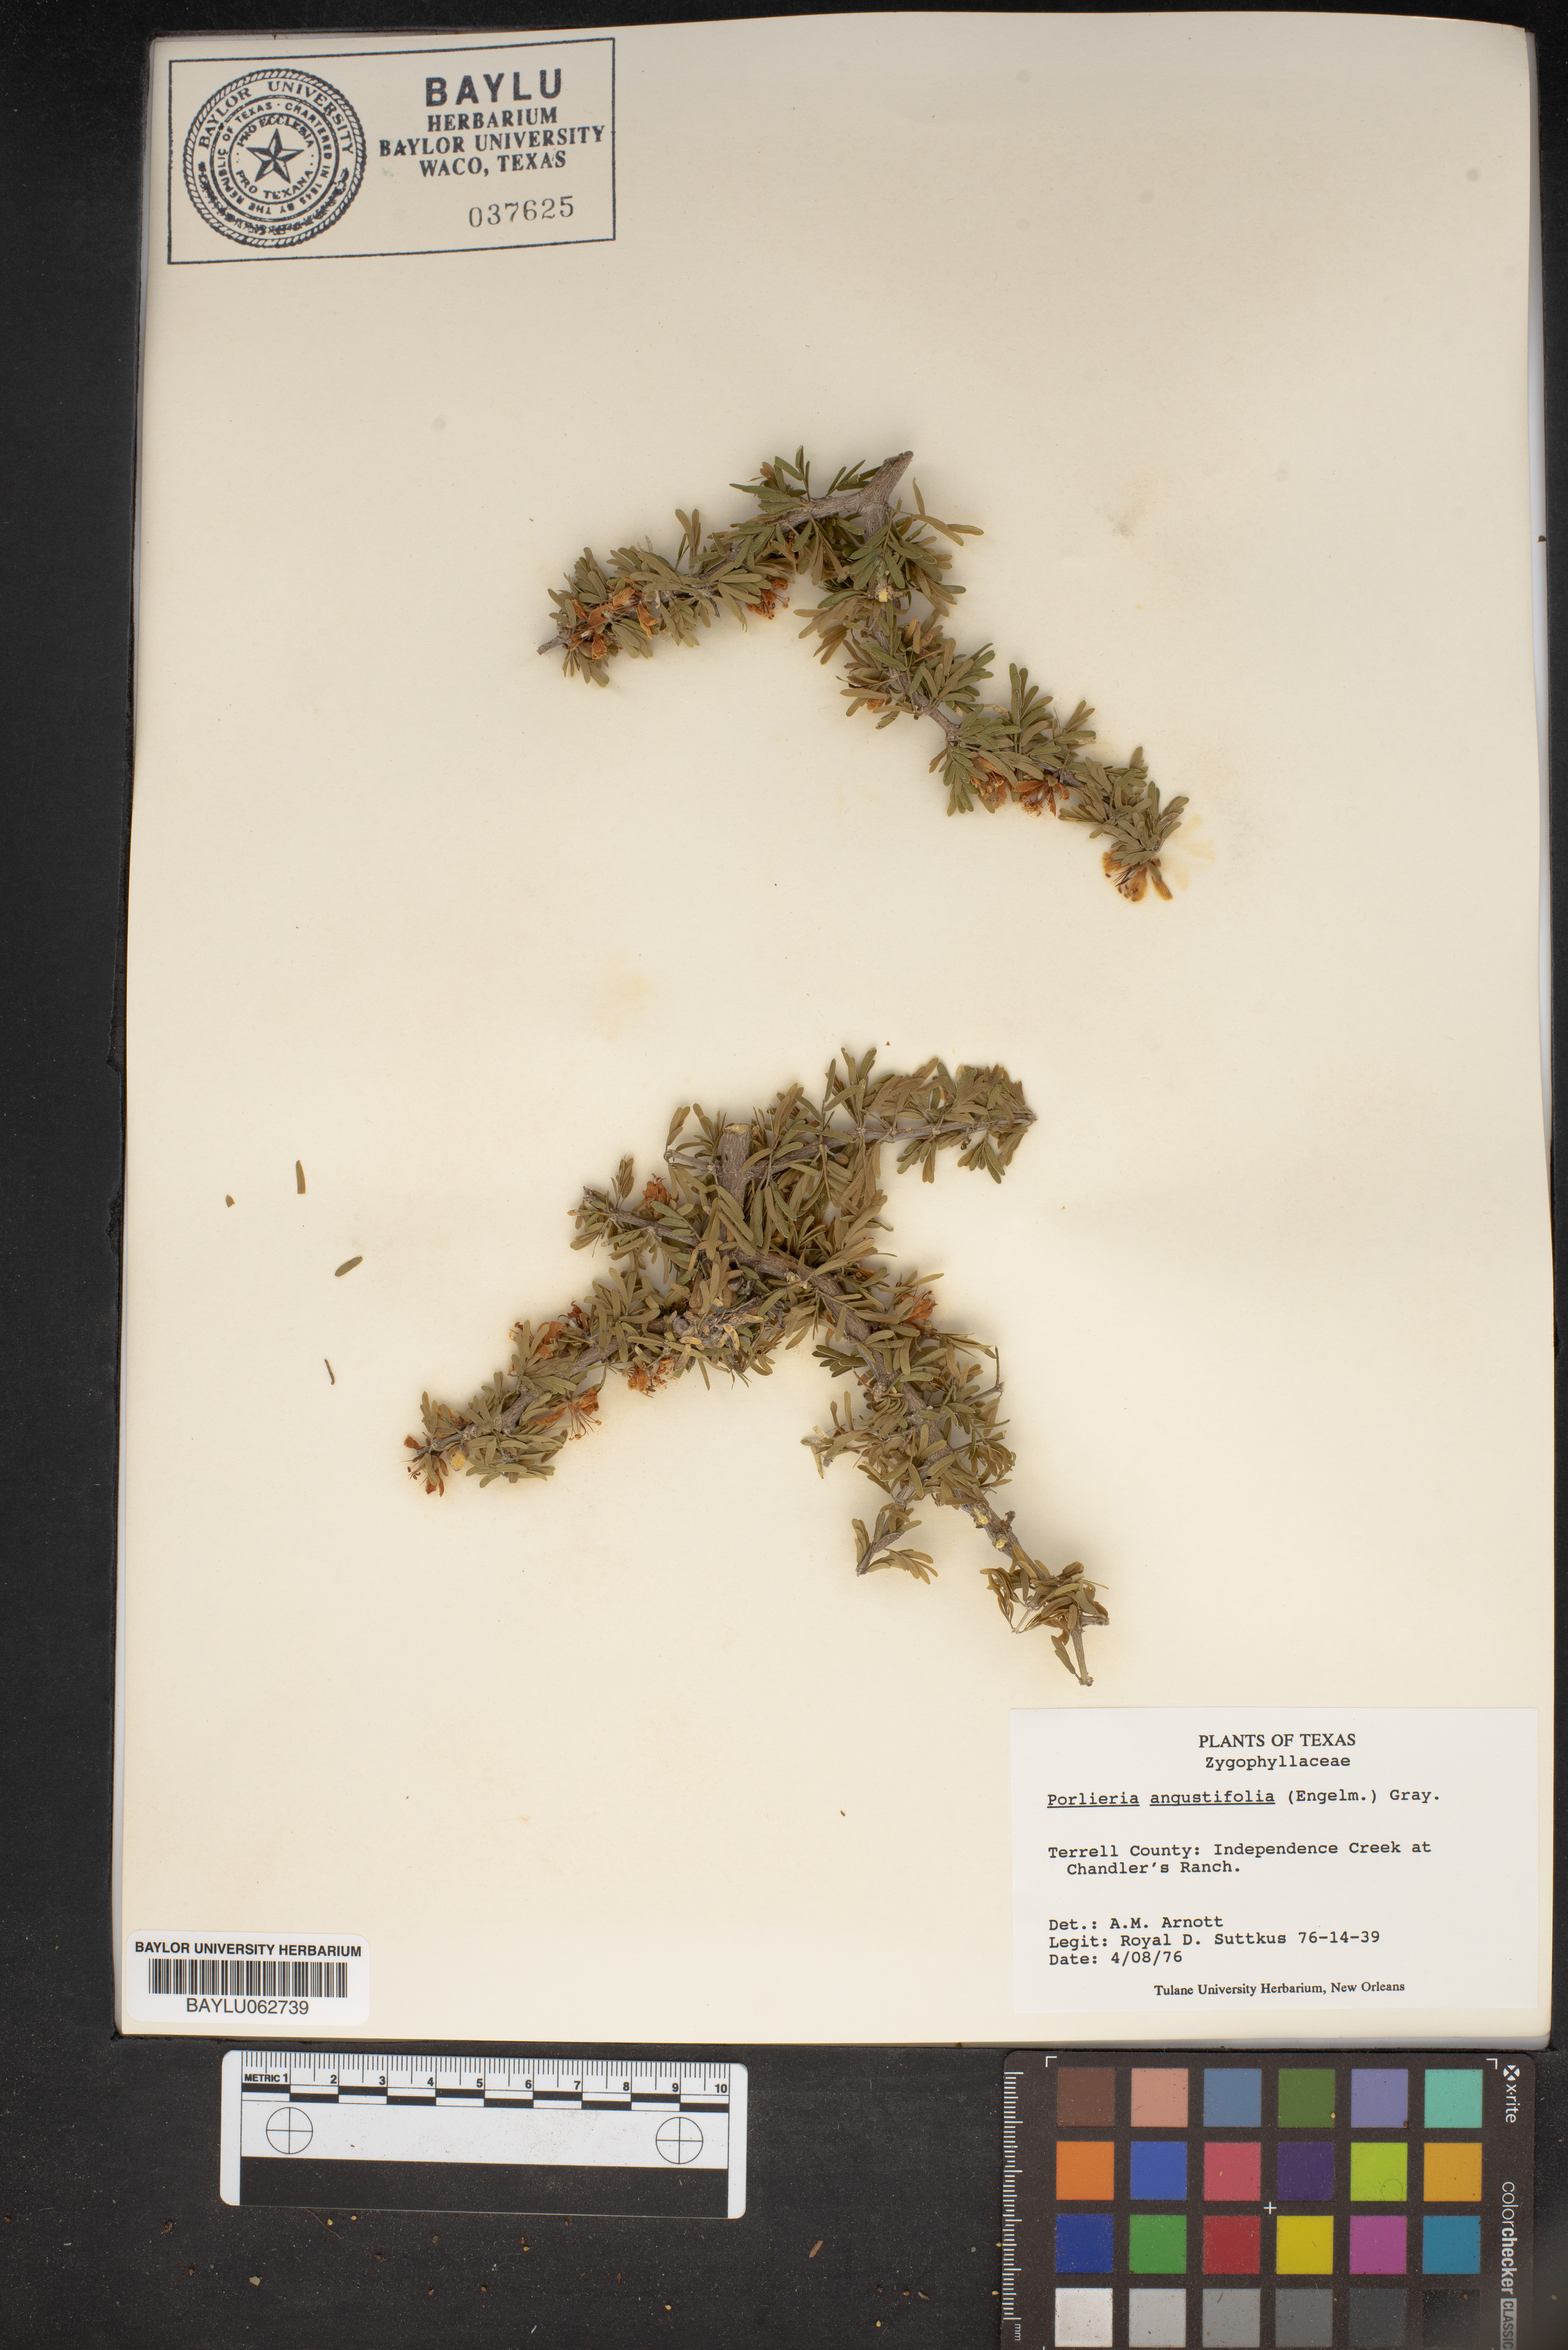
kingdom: Plantae
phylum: Tracheophyta
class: Magnoliopsida
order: Zygophyllales
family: Zygophyllaceae
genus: Porlieria
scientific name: Porlieria angustifolia
